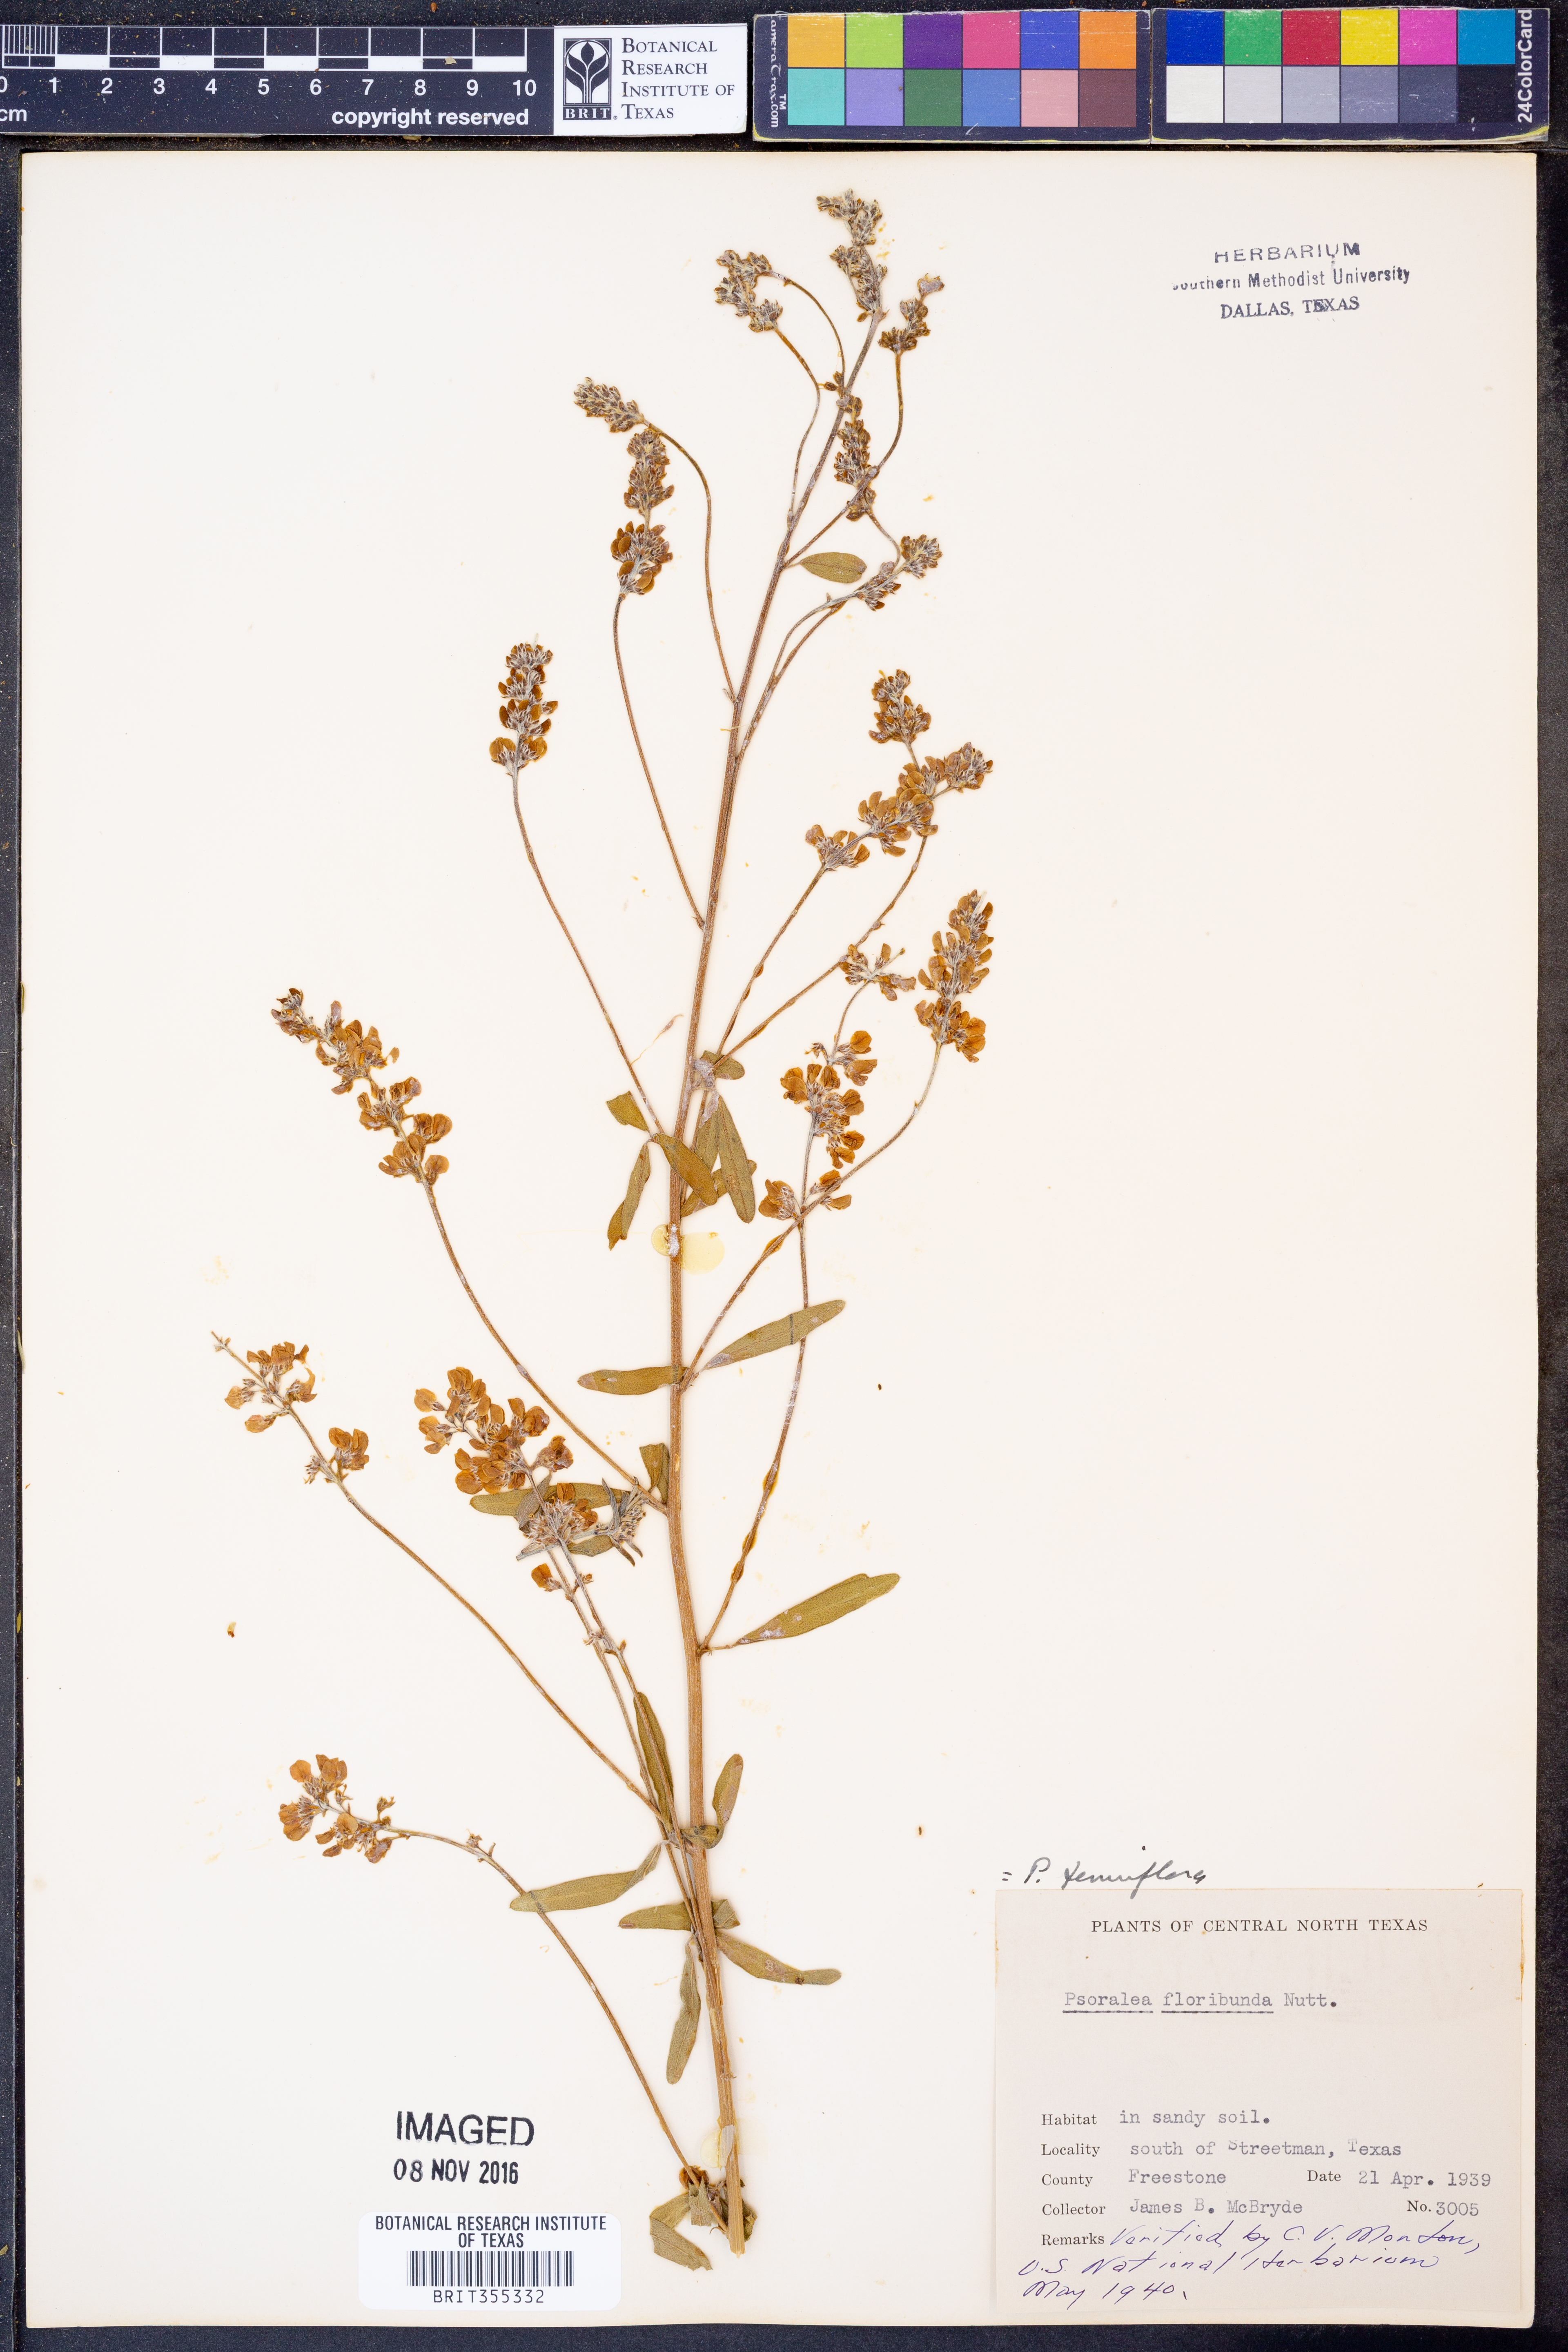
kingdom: Plantae
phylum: Tracheophyta
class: Magnoliopsida
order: Fabales
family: Fabaceae
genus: Pediomelum
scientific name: Pediomelum tenuiflorum
